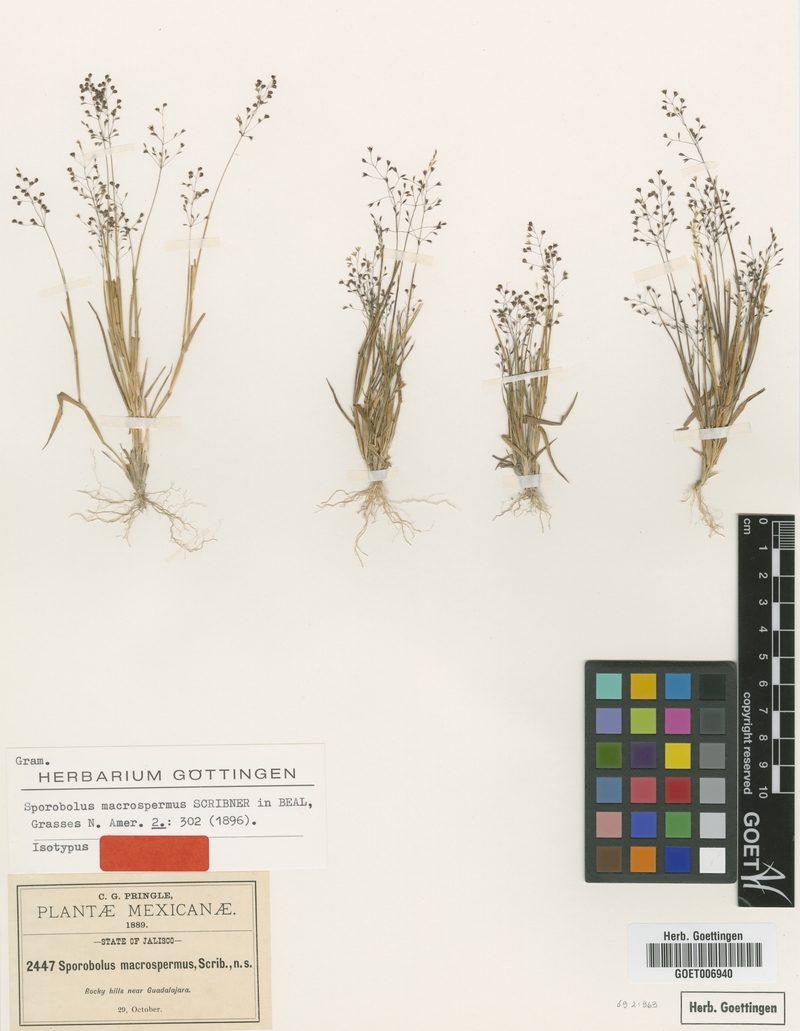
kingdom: Plantae
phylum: Tracheophyta
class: Liliopsida
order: Poales
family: Poaceae
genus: Sporobolus
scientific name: Sporobolus macrospermus
